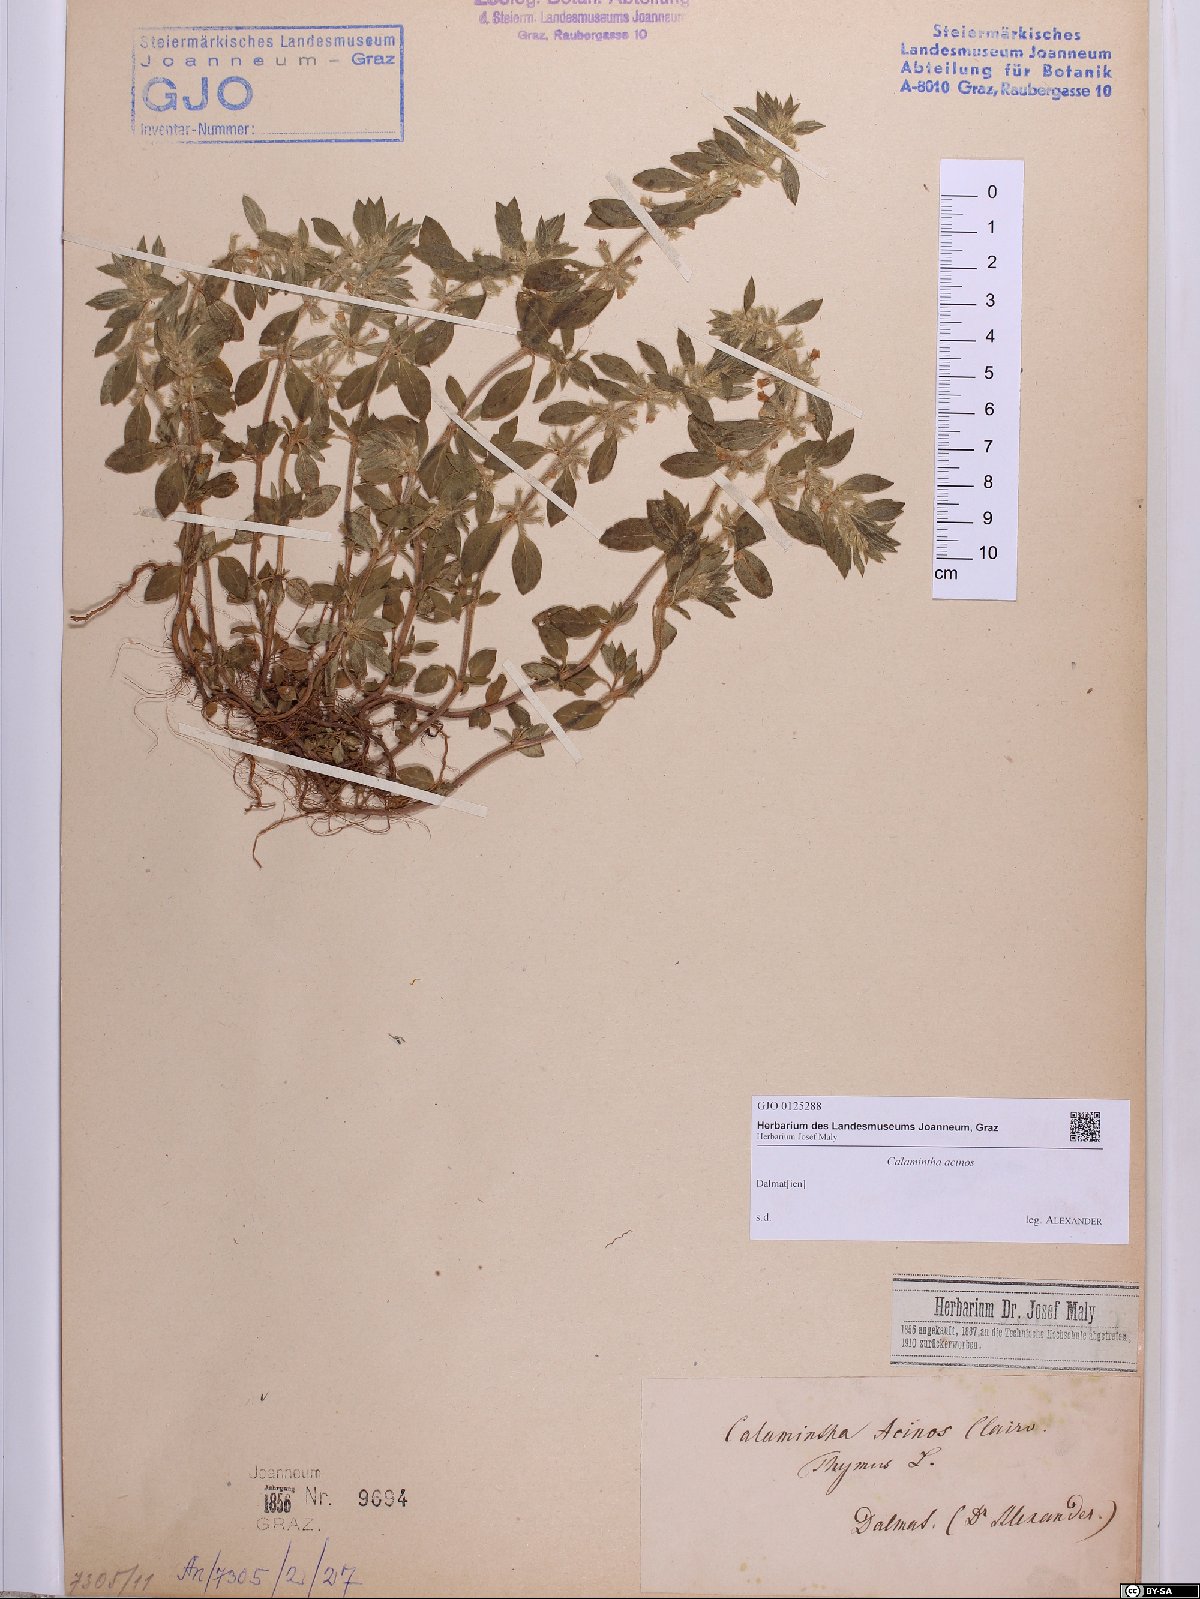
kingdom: Plantae
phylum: Tracheophyta
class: Magnoliopsida
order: Lamiales
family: Lamiaceae
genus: Clinopodium
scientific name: Clinopodium acinos
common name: Basil thyme
